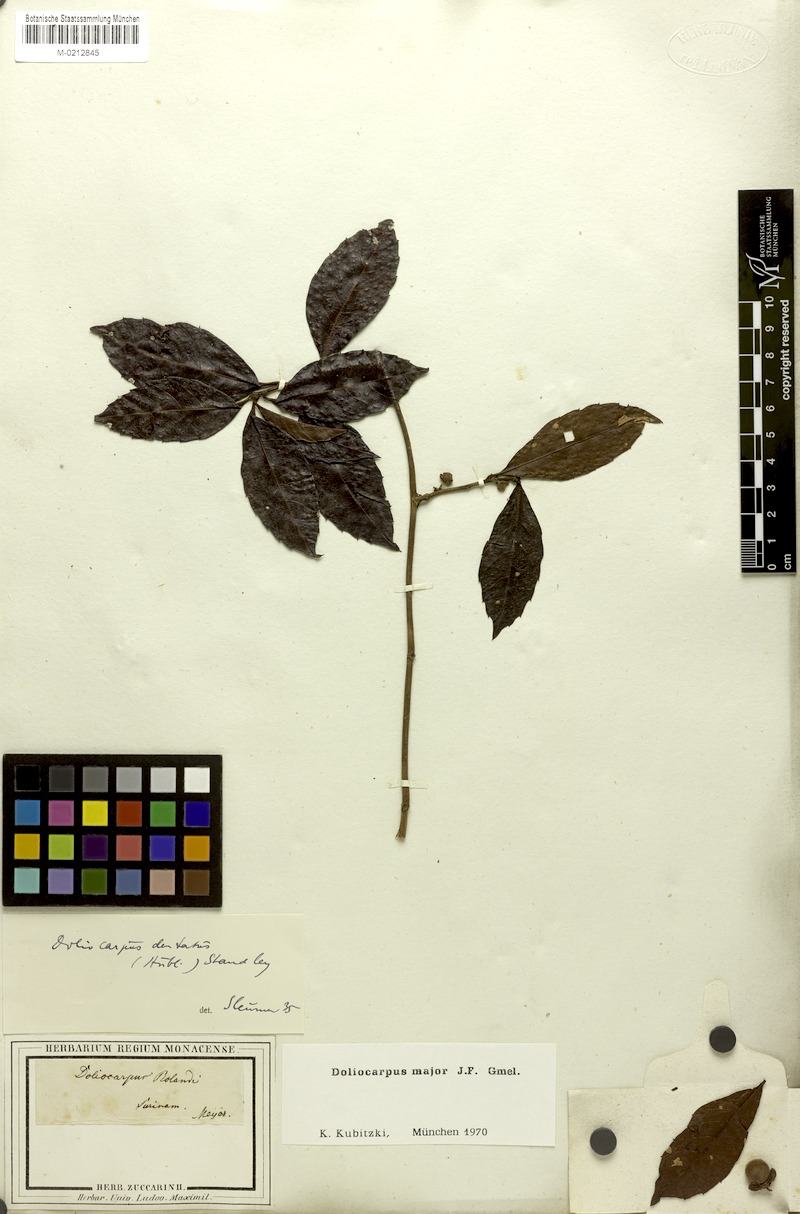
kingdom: Plantae
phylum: Tracheophyta
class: Magnoliopsida
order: Dilleniales
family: Dilleniaceae
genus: Doliocarpus
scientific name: Doliocarpus major
